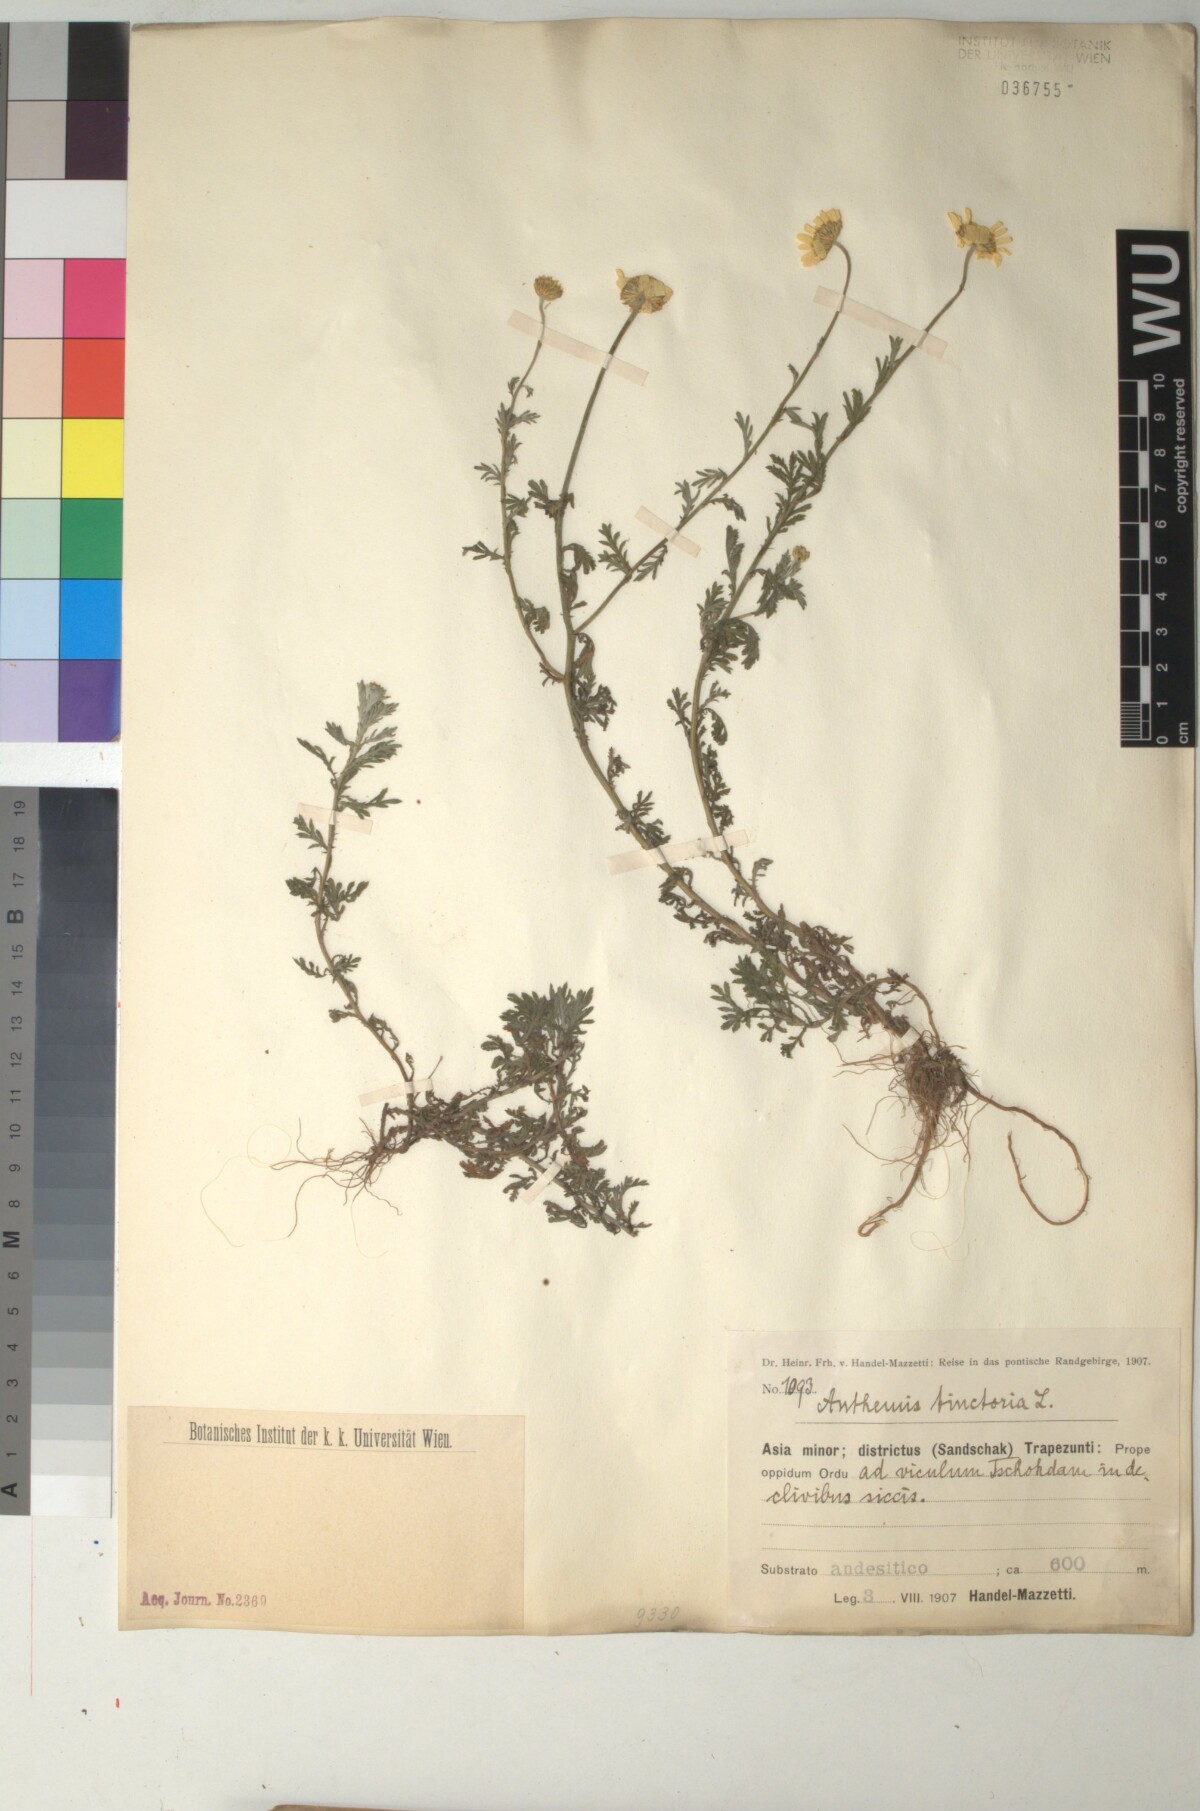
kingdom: Plantae
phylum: Tracheophyta
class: Magnoliopsida
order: Asterales
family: Asteraceae
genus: Cota
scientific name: Cota tinctoria
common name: Golden chamomile
